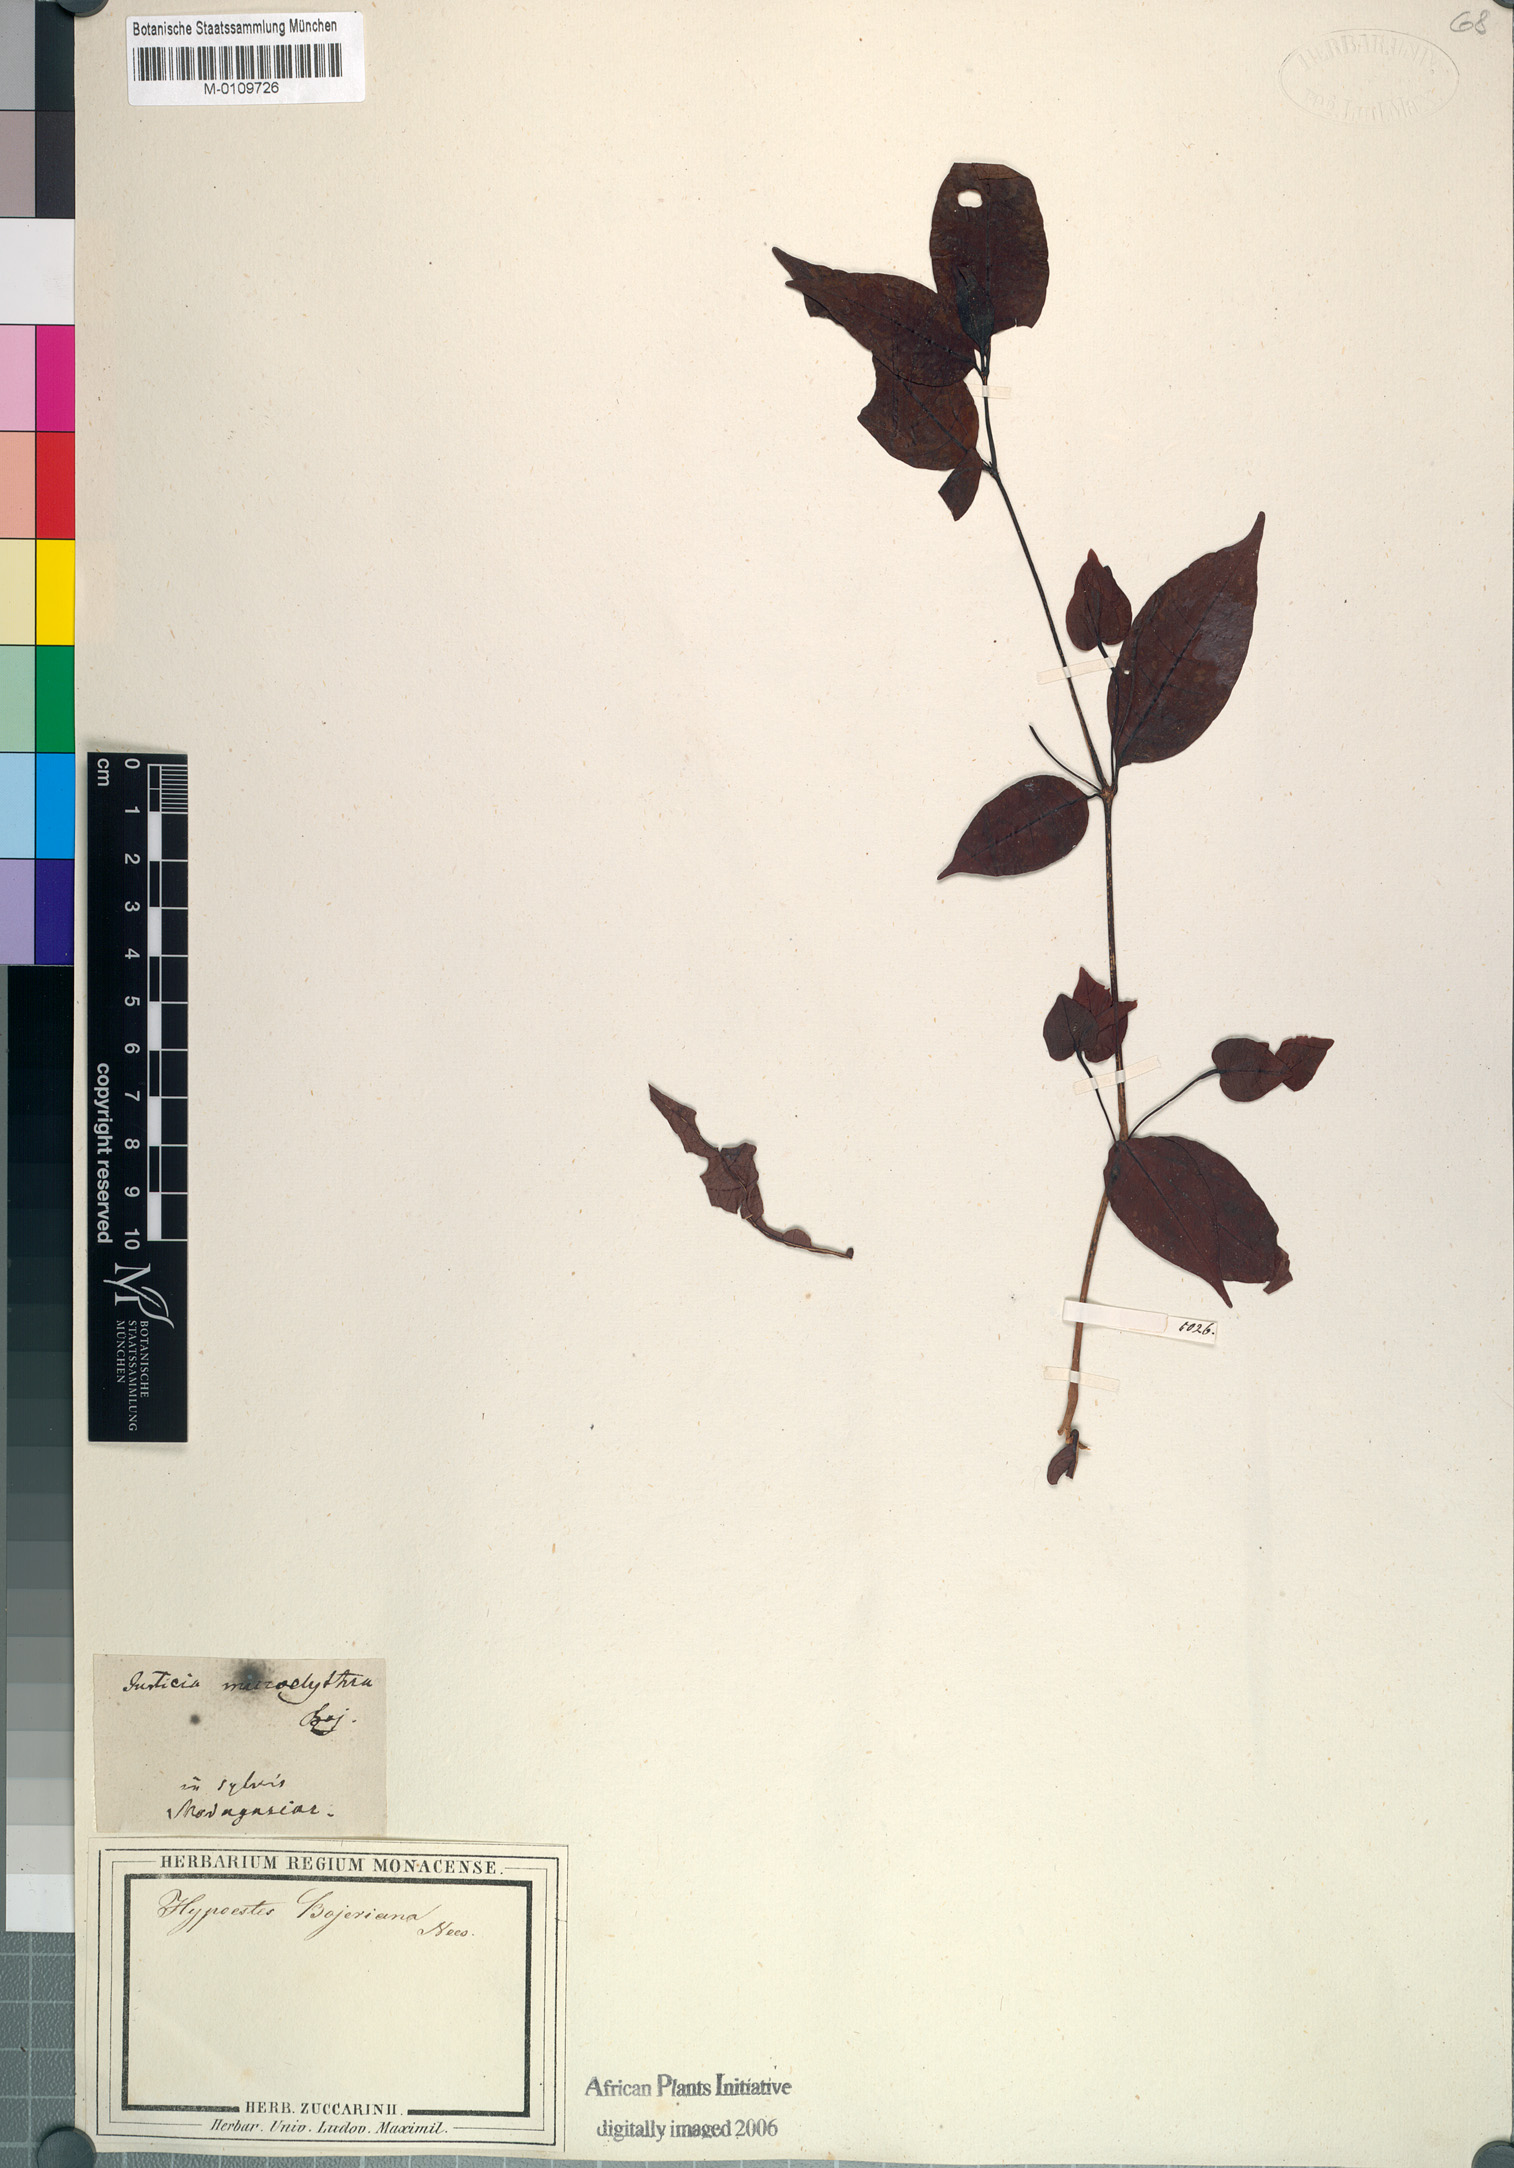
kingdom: Plantae
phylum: Tracheophyta
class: Magnoliopsida
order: Lamiales
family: Acanthaceae
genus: Hypoestes
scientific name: Hypoestes bojeriana
